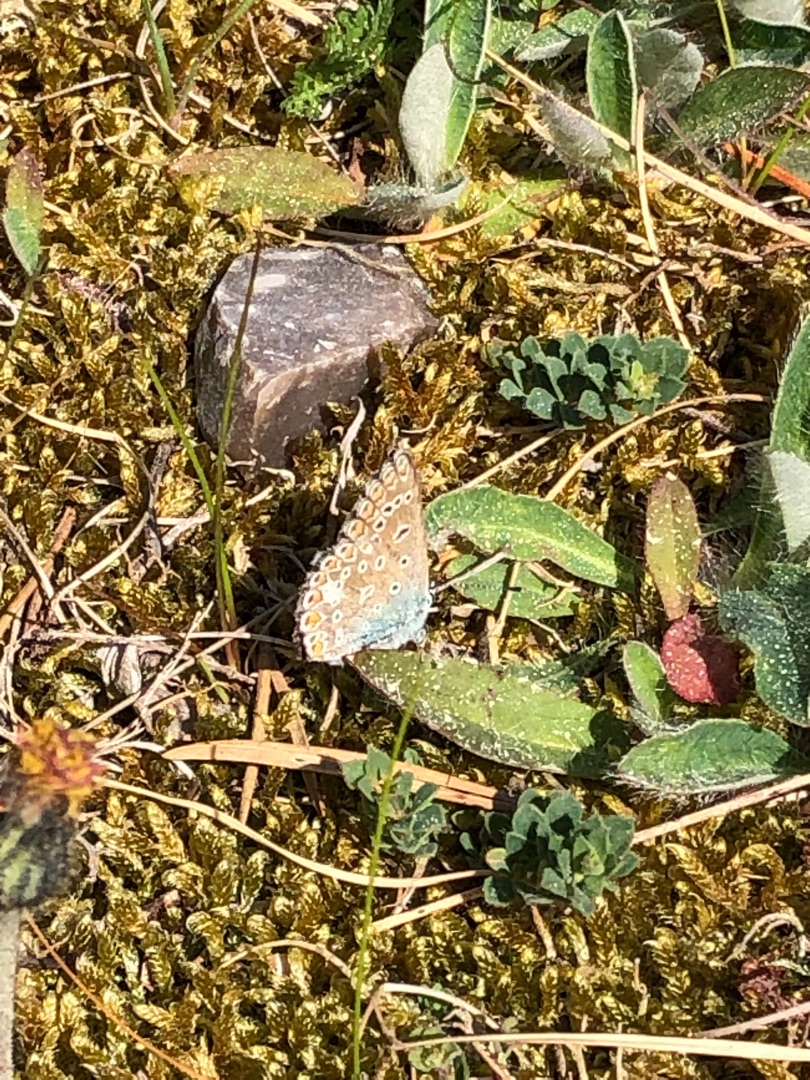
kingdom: Animalia
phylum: Arthropoda
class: Insecta
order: Lepidoptera
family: Lycaenidae
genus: Polyommatus
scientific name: Polyommatus icarus
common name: Almindelig blåfugl
